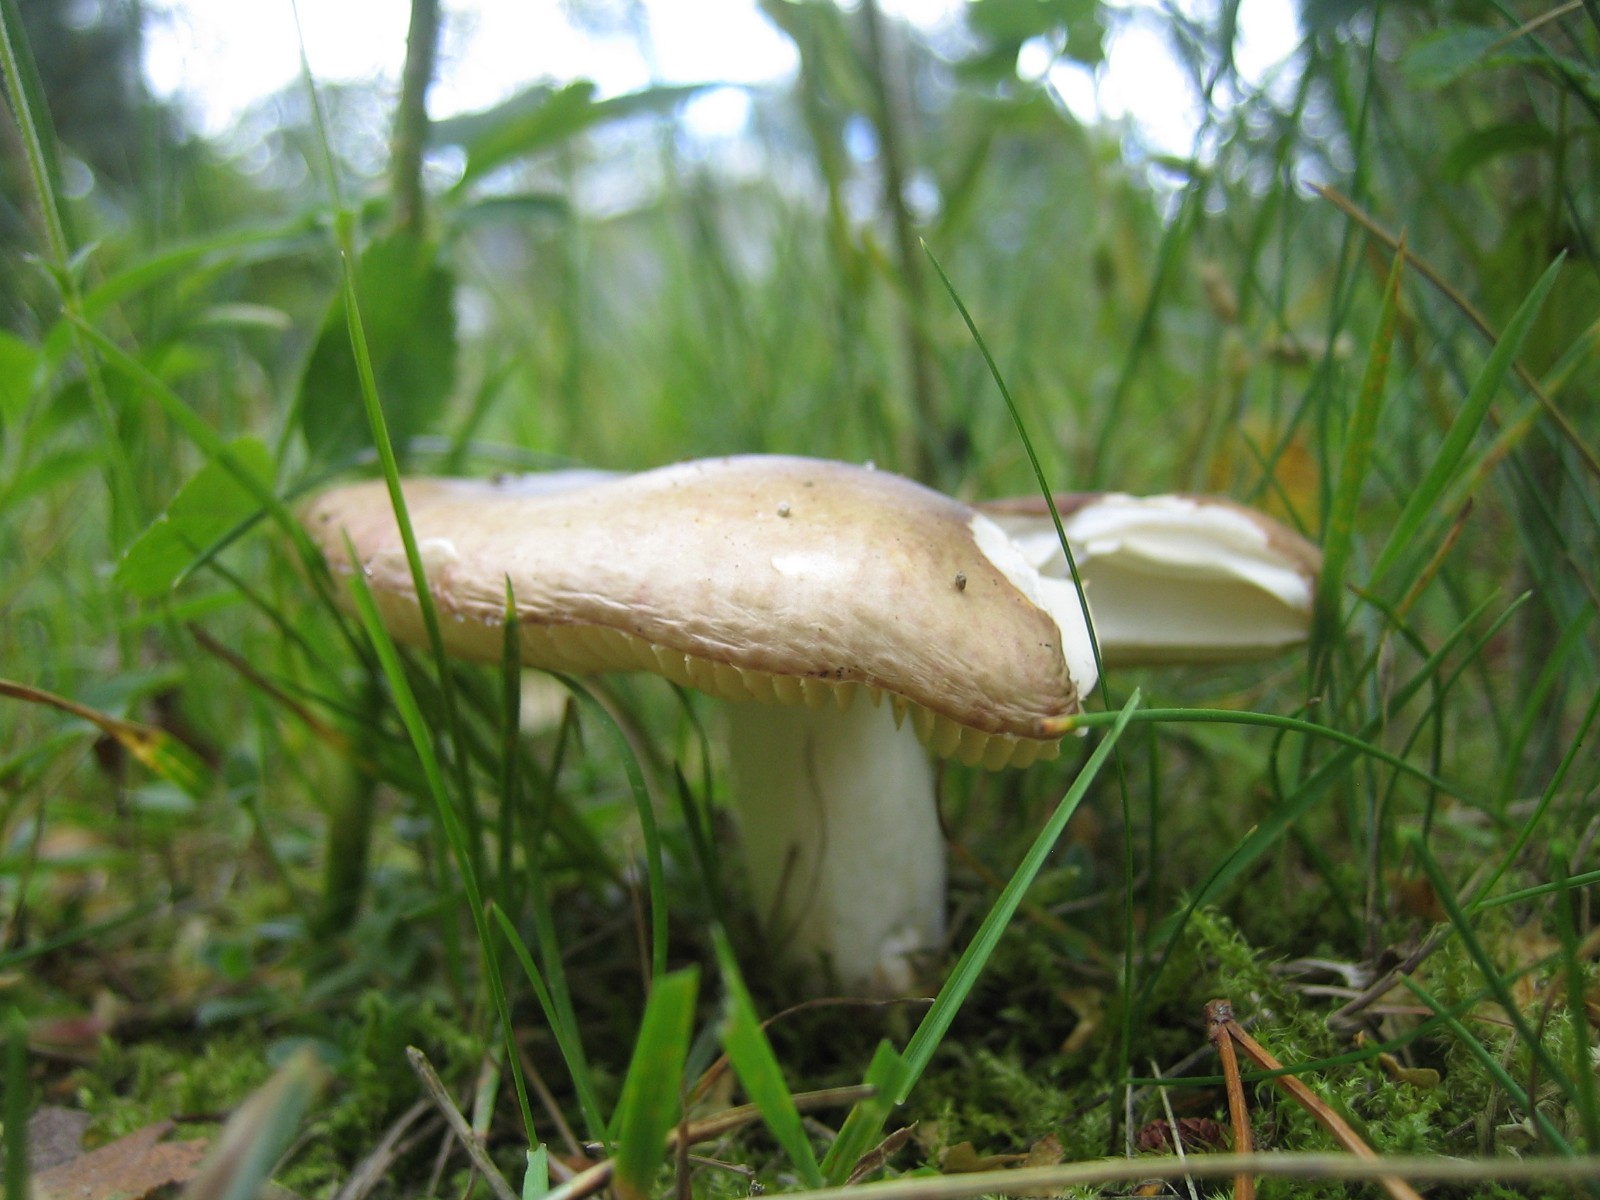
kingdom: Fungi
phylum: Basidiomycota
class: Agaricomycetes
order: Russulales
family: Russulaceae
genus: Russula
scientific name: Russula
